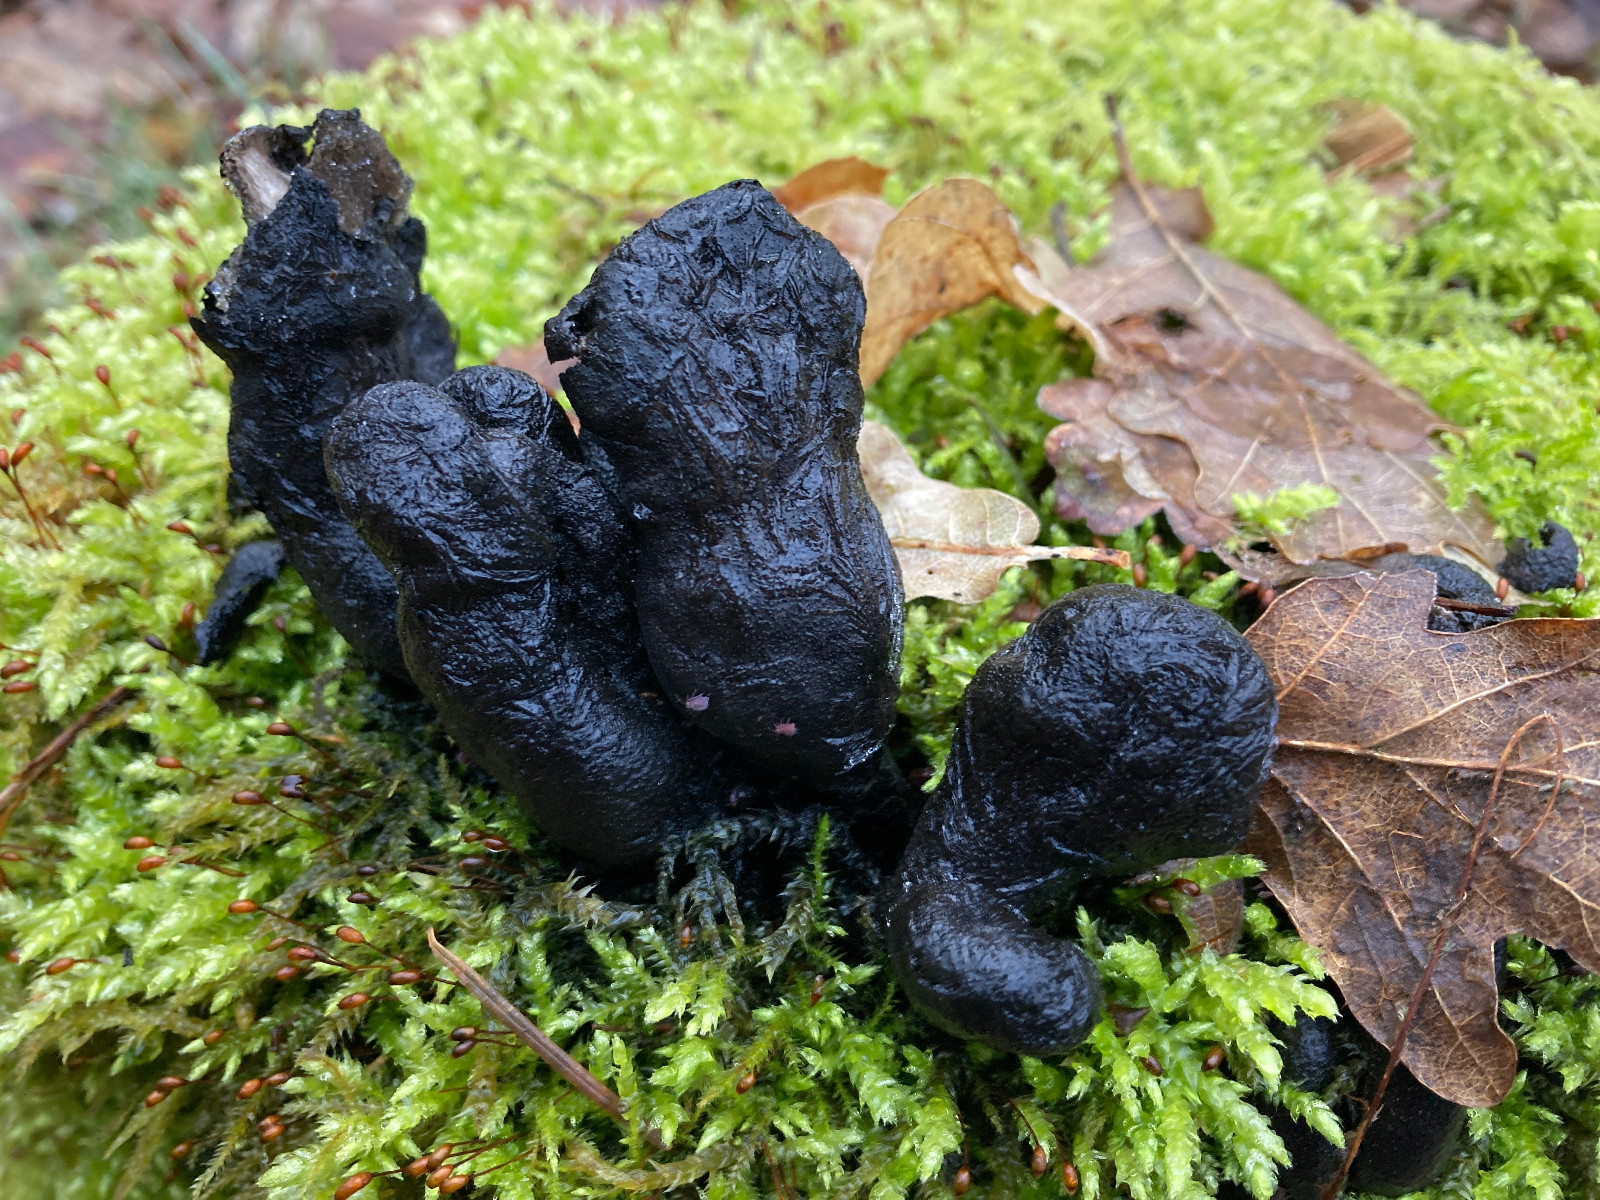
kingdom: Fungi
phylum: Ascomycota
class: Sordariomycetes
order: Xylariales
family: Xylariaceae
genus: Xylaria
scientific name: Xylaria polymorpha
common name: kølle-stødsvamp
